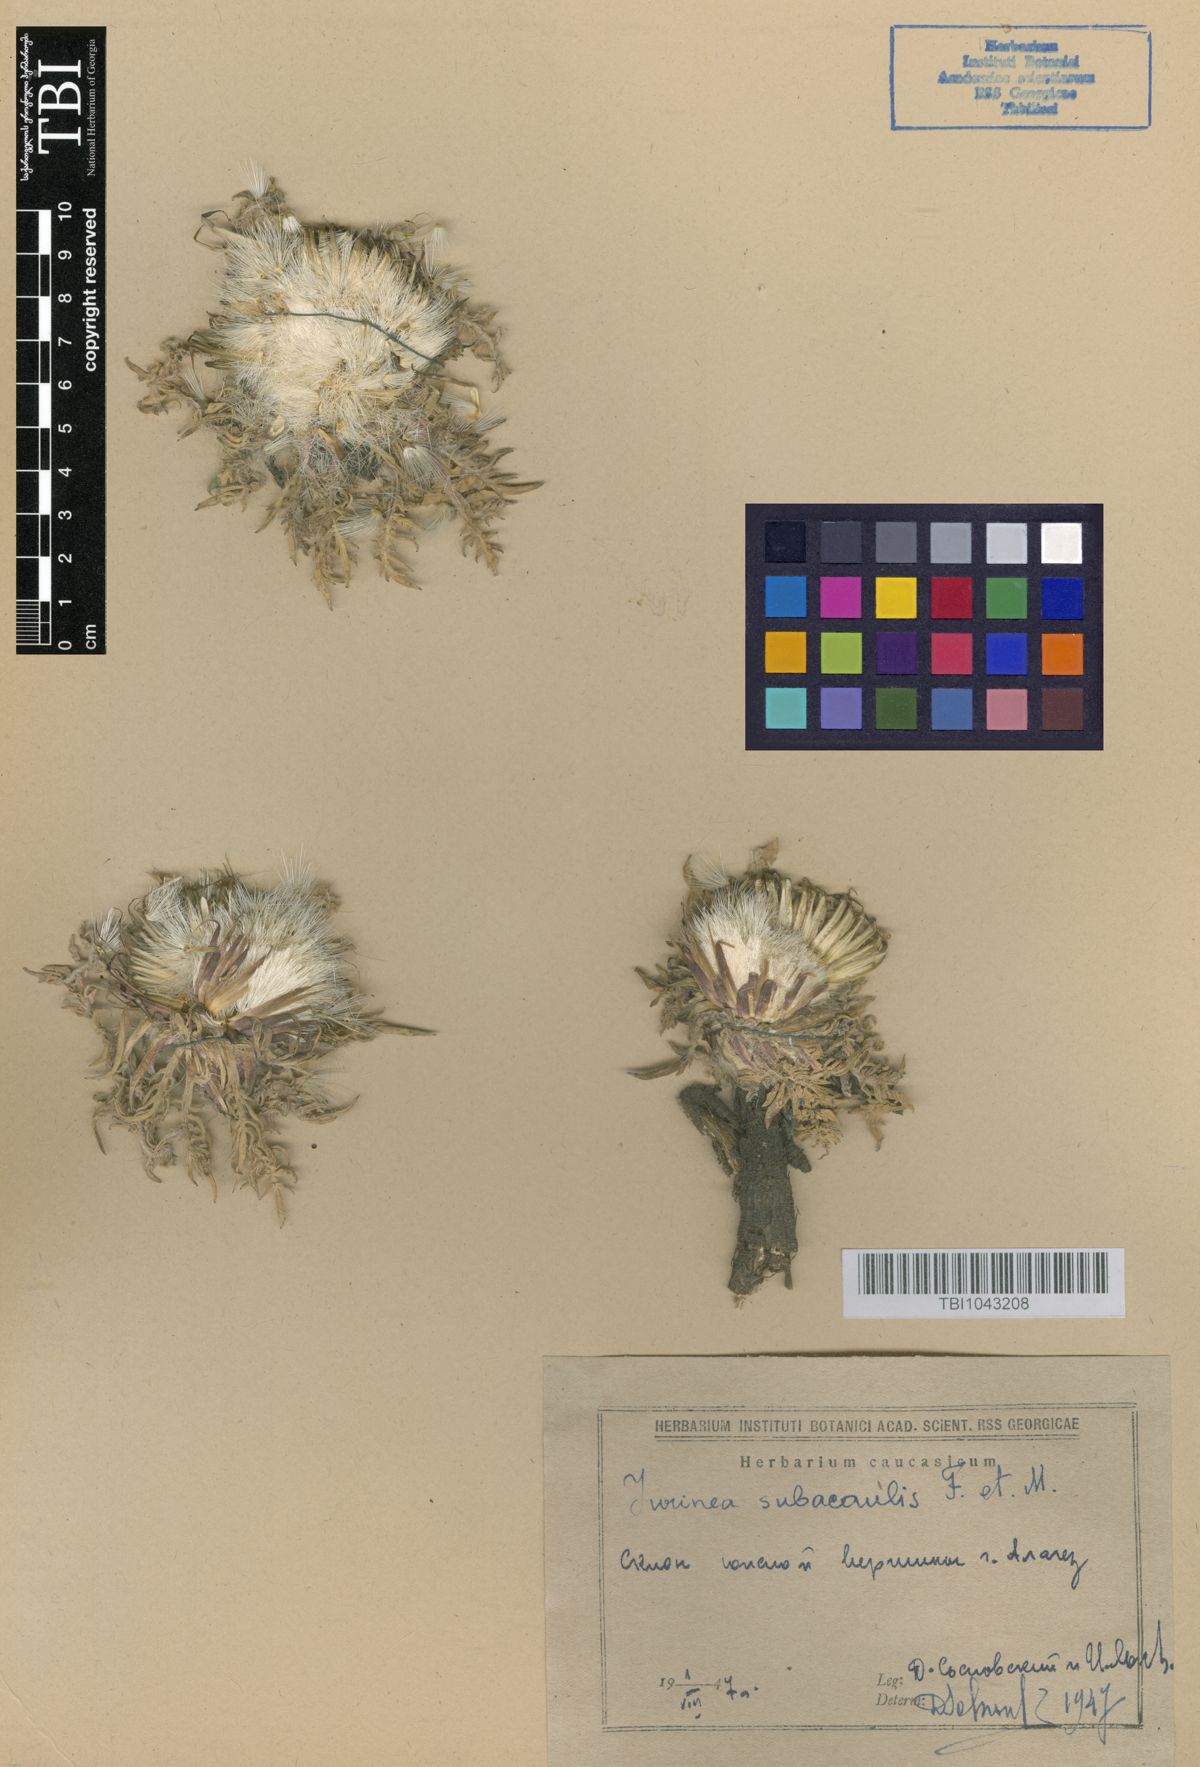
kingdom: Plantae
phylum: Tracheophyta
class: Magnoliopsida
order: Asterales
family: Asteraceae
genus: Jurinea
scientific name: Jurinea moschus
